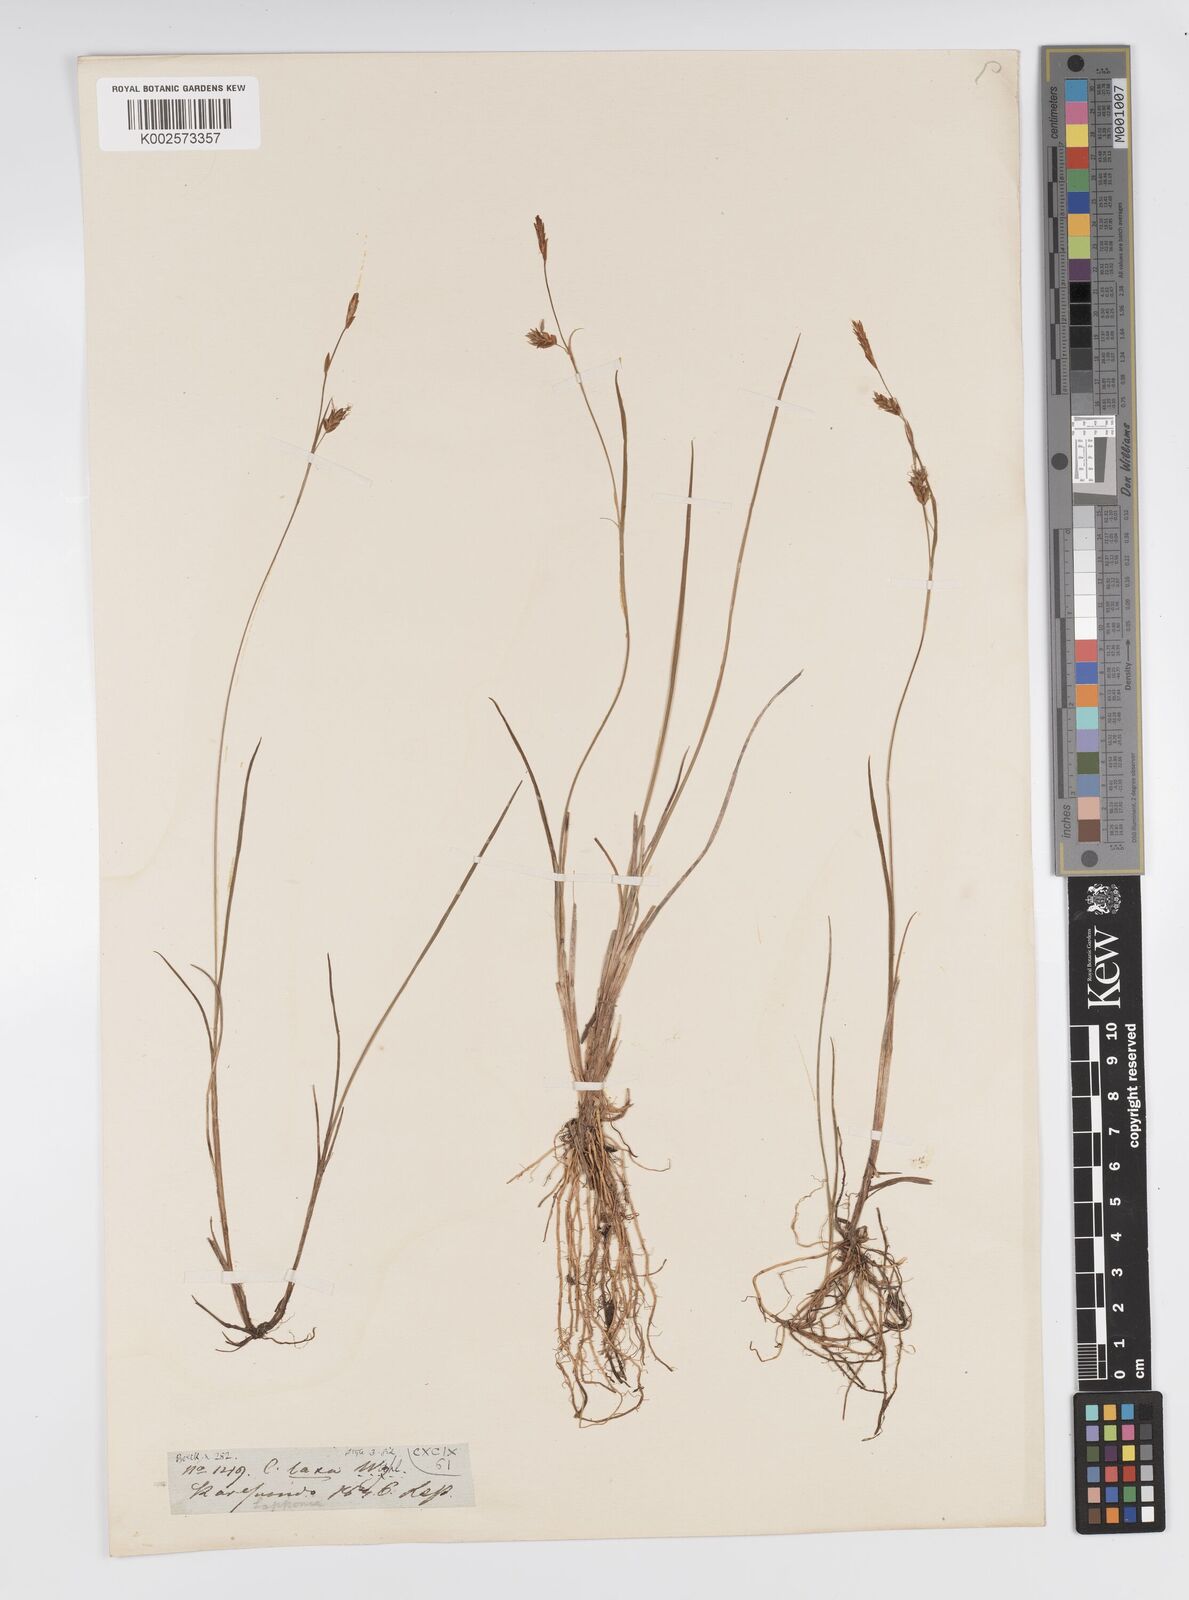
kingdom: Plantae
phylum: Tracheophyta
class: Liliopsida
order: Poales
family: Cyperaceae
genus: Carex
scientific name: Carex laxa
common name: Weak sedge
